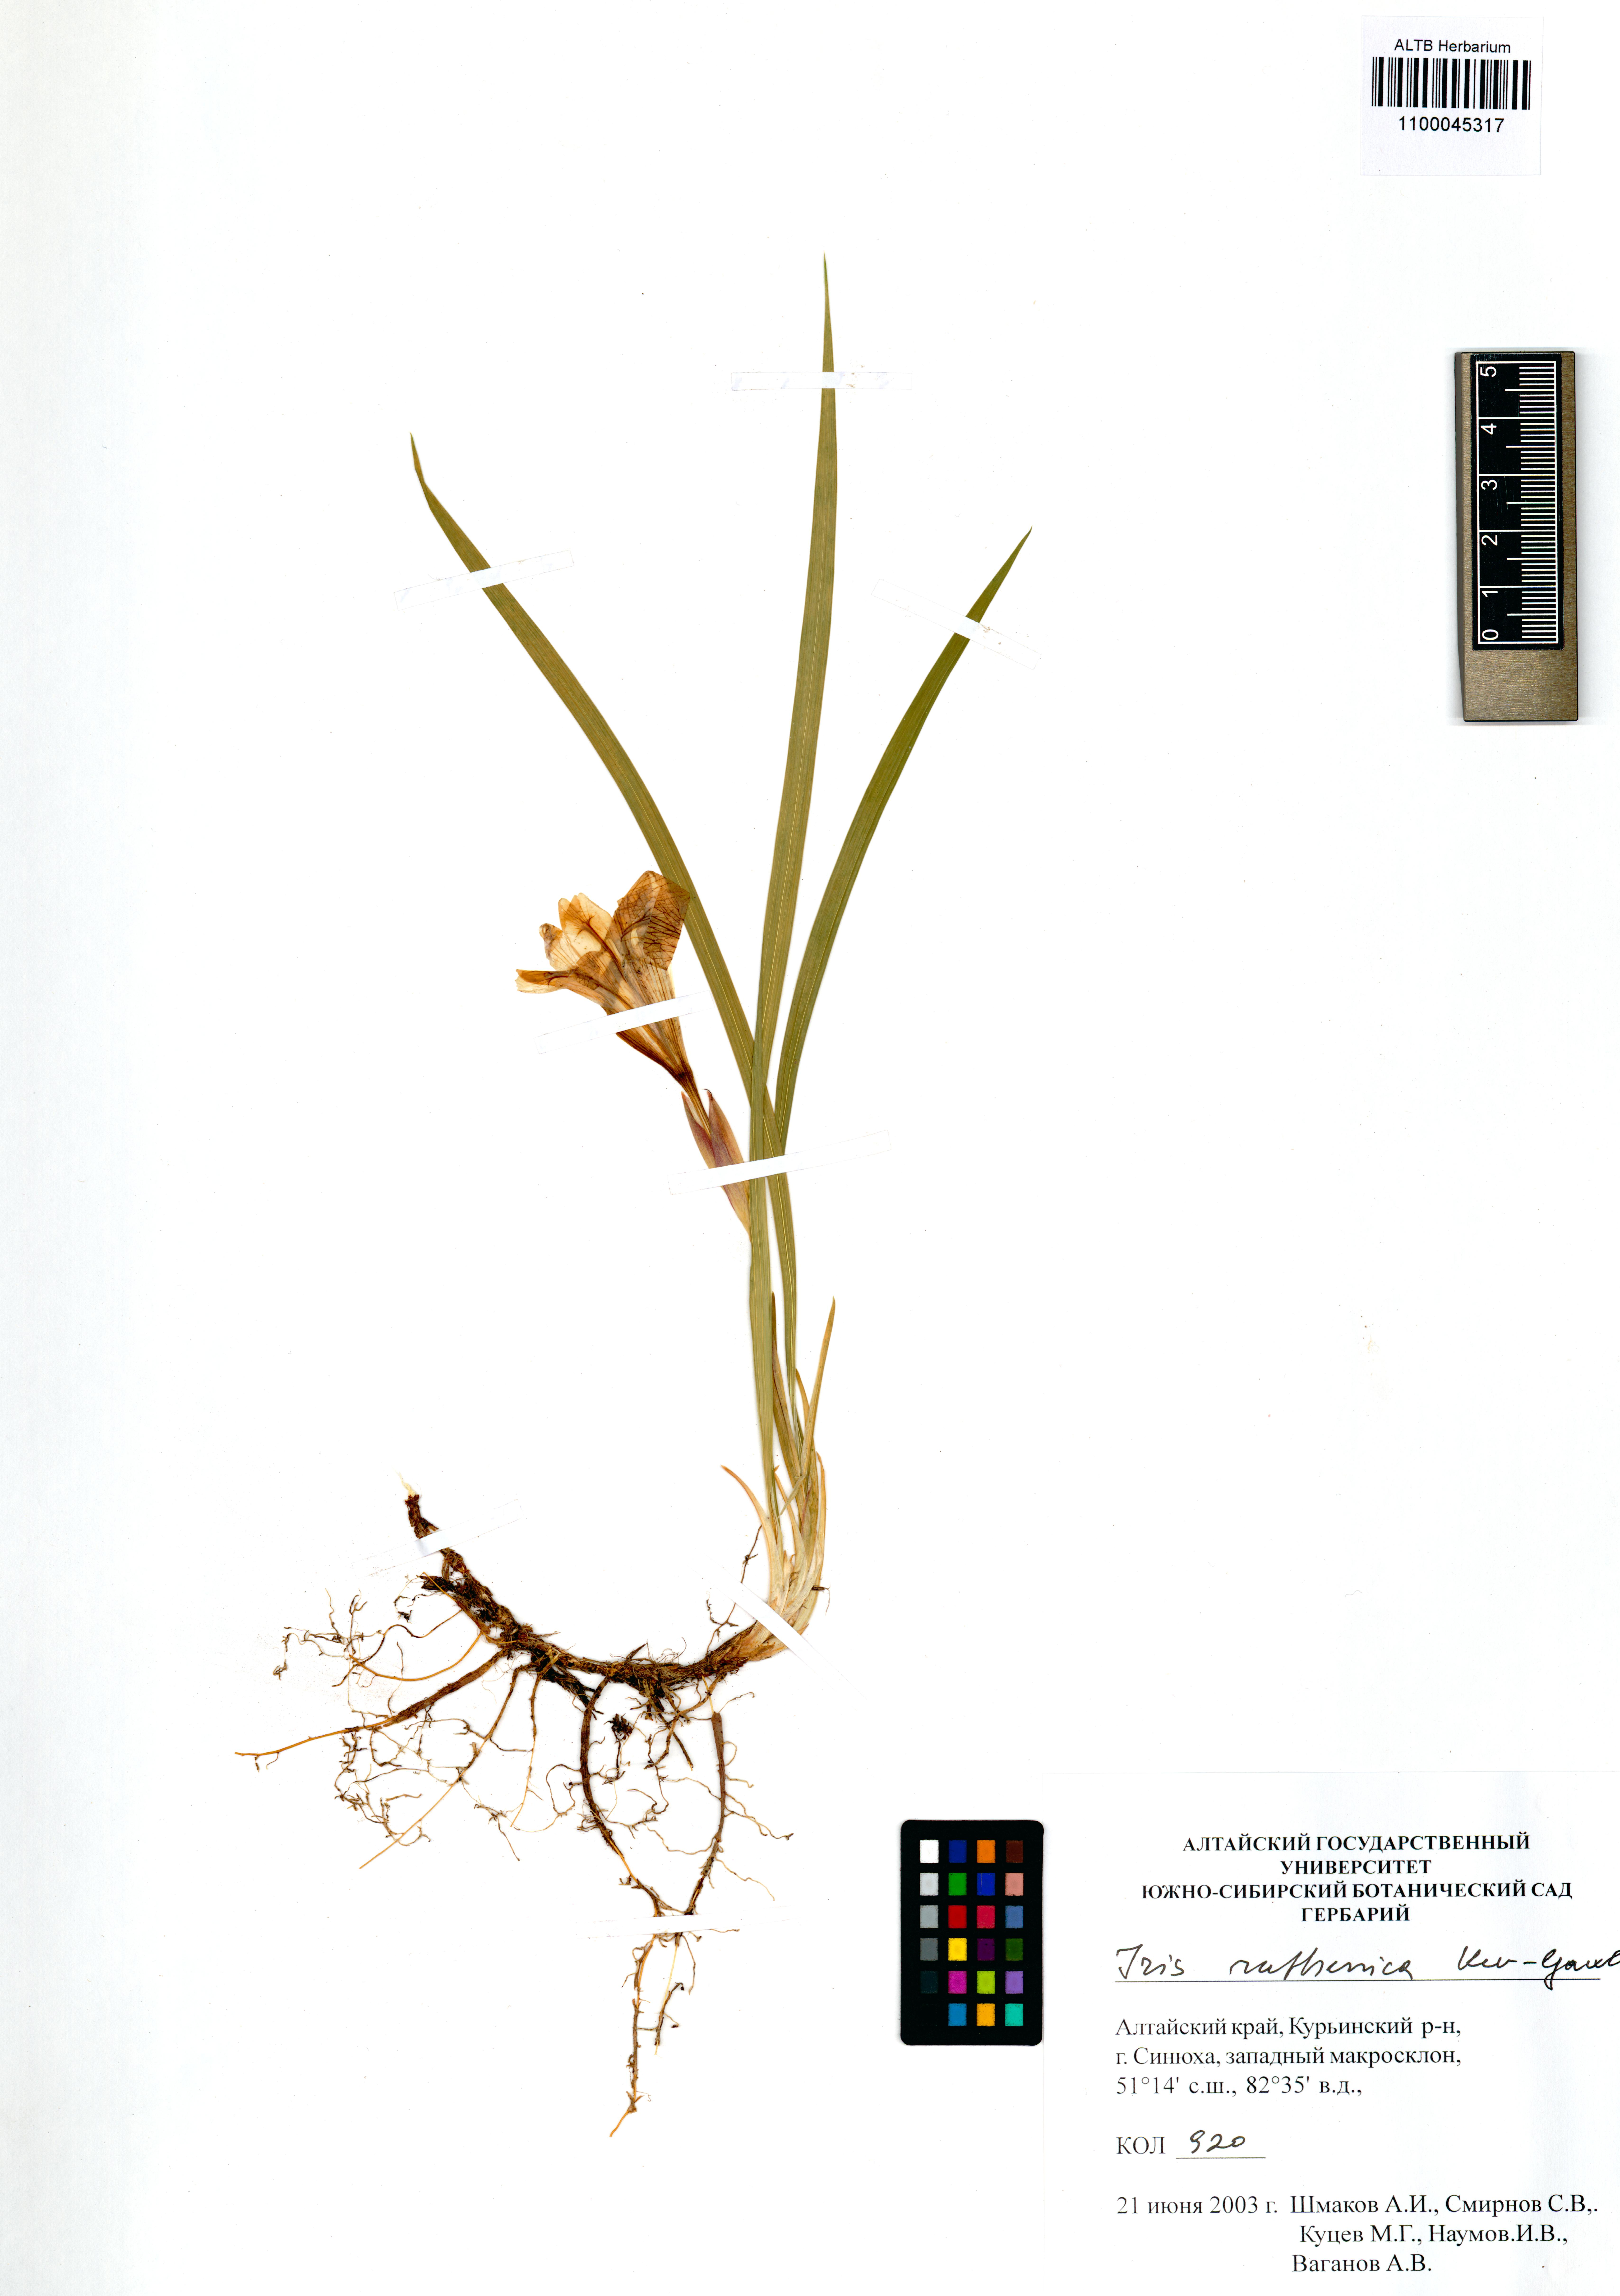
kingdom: Plantae
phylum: Tracheophyta
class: Liliopsida
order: Asparagales
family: Iridaceae
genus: Iris
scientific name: Iris ruthenica
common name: Purple-bract iris
